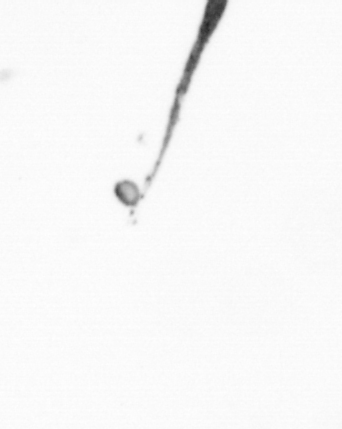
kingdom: Bacteria
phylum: Cyanobacteria
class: Cyanobacteriia
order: Cyanobacteriales
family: Microcoleaceae
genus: Trichodesmium
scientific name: Trichodesmium
